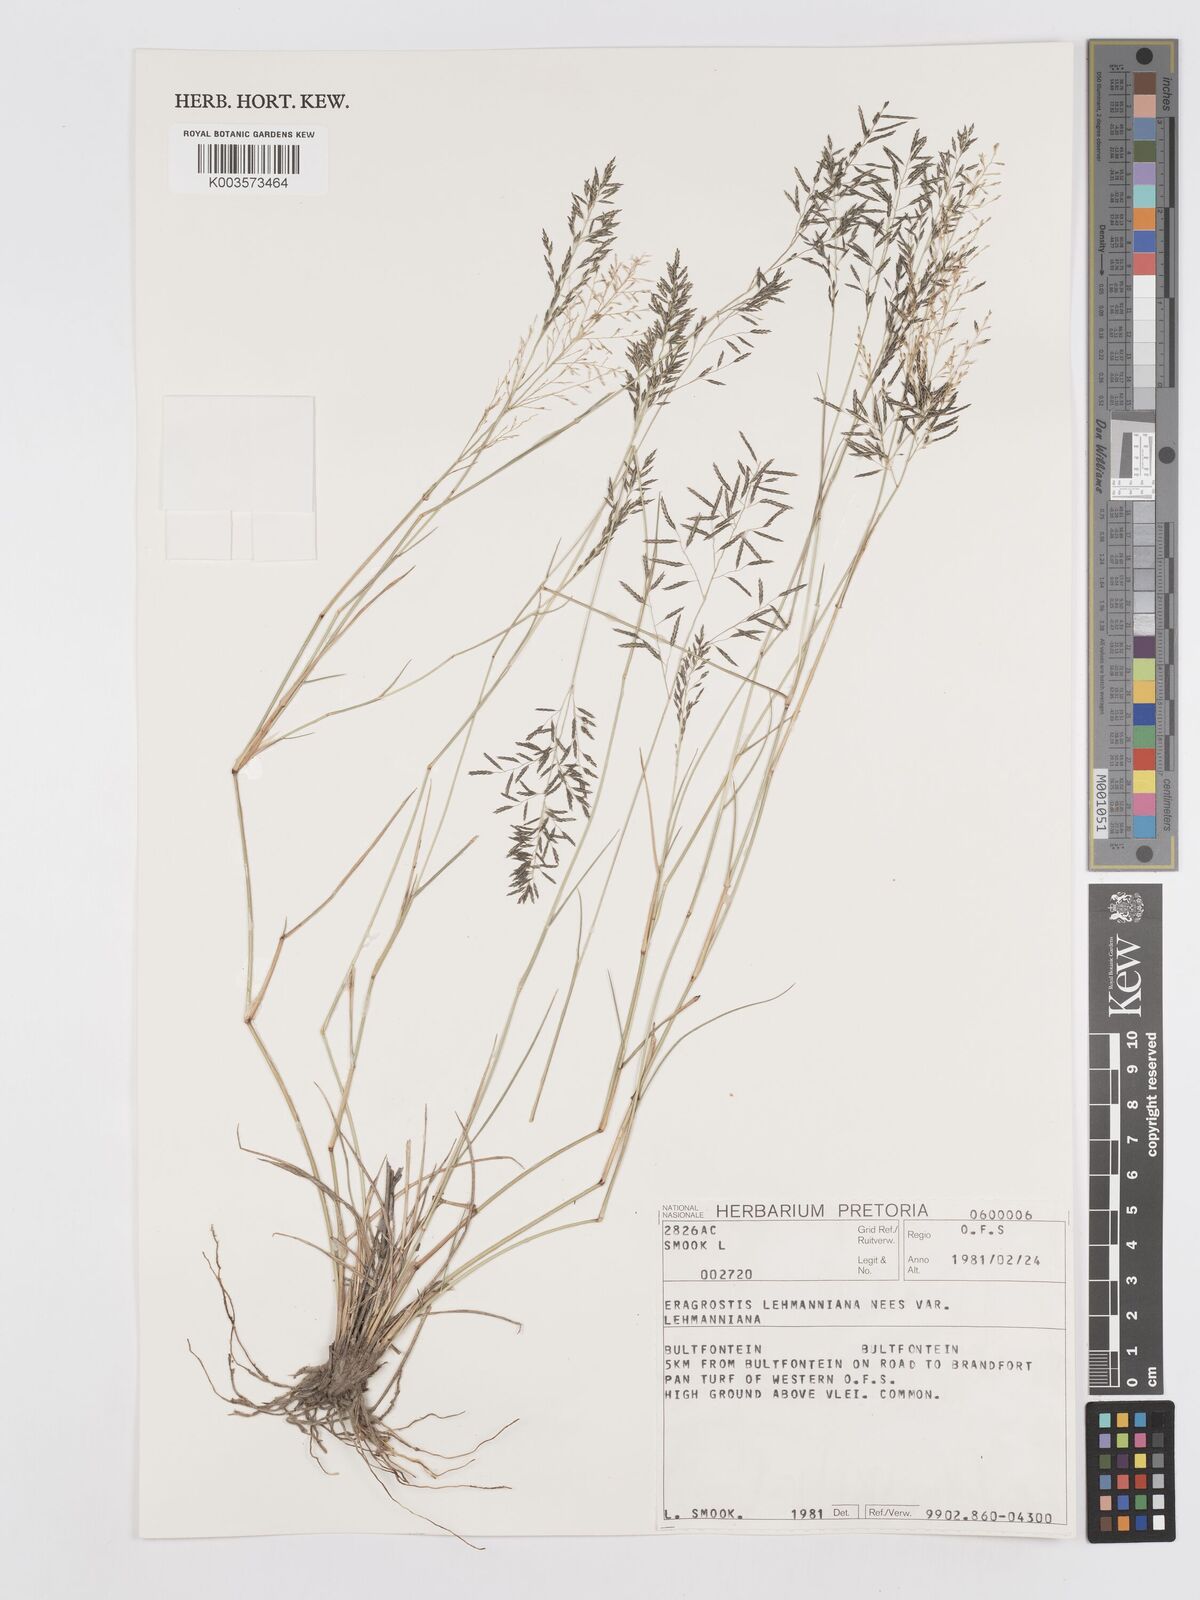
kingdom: Plantae
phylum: Tracheophyta
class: Liliopsida
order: Poales
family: Poaceae
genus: Eragrostis
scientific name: Eragrostis lehmanniana
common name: Lehmann lovegrass
